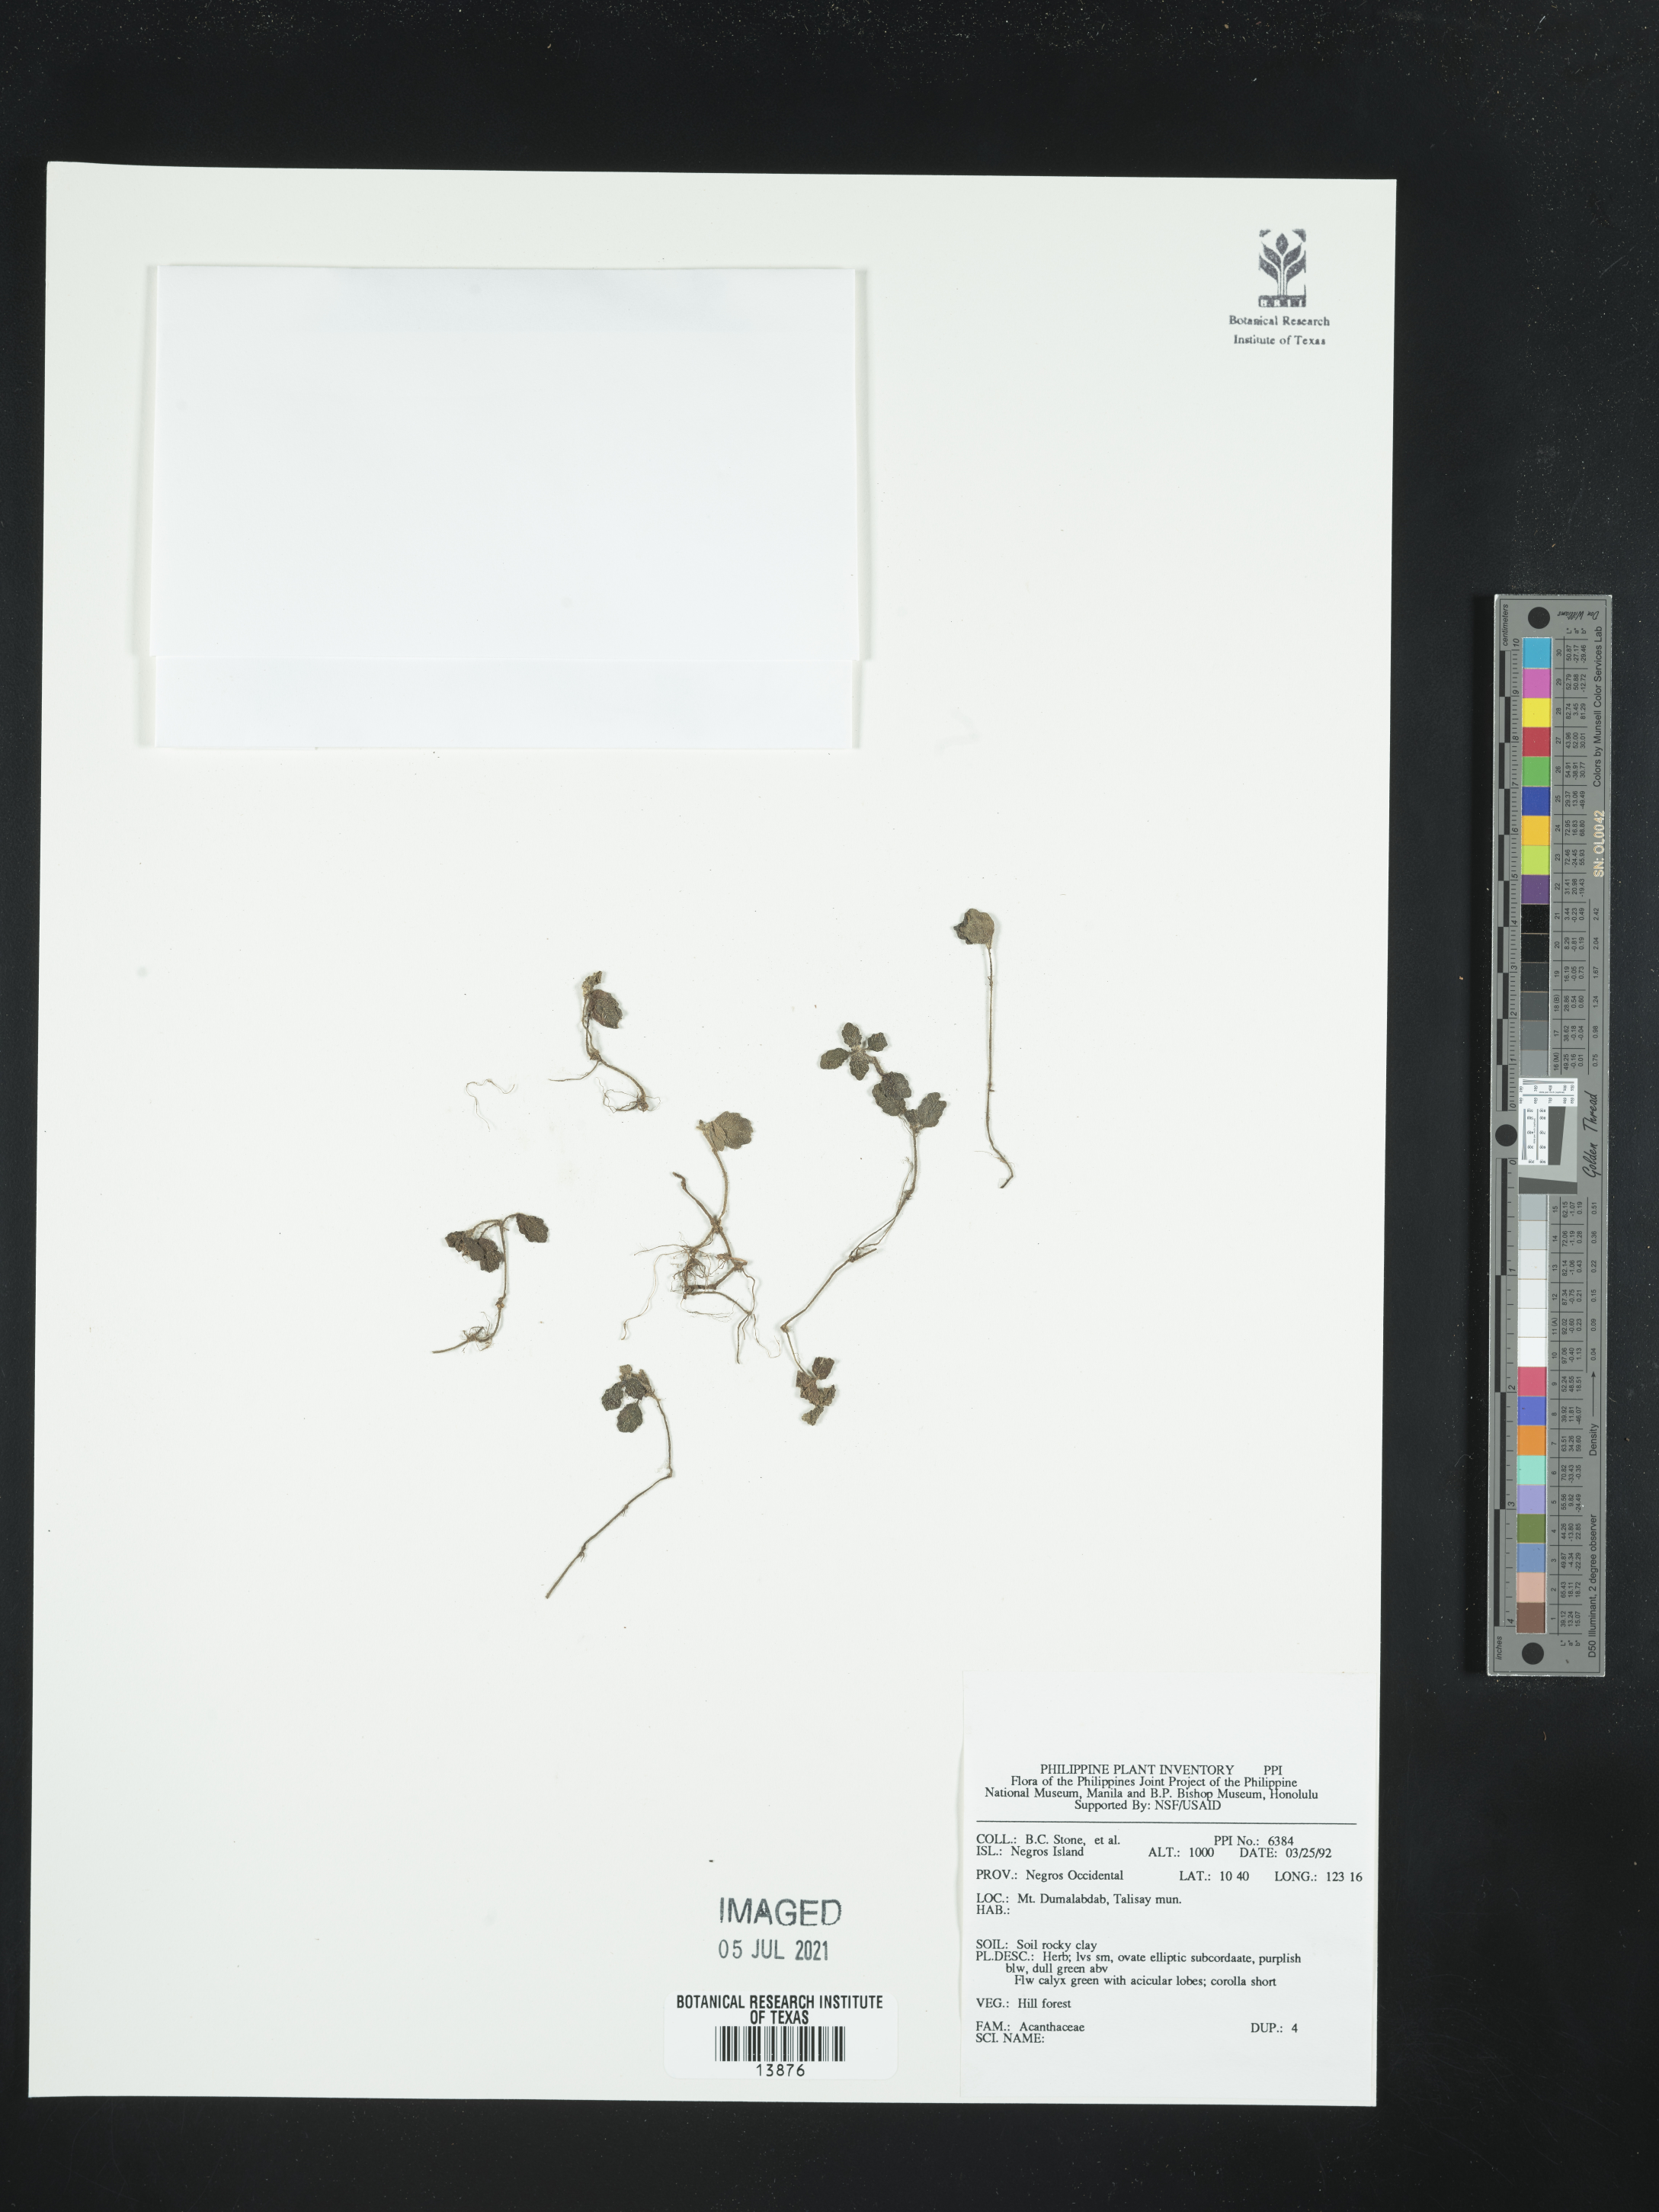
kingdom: Plantae
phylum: Tracheophyta
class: Magnoliopsida
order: Lamiales
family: Acanthaceae
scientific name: Acanthaceae
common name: Acanthaceae
